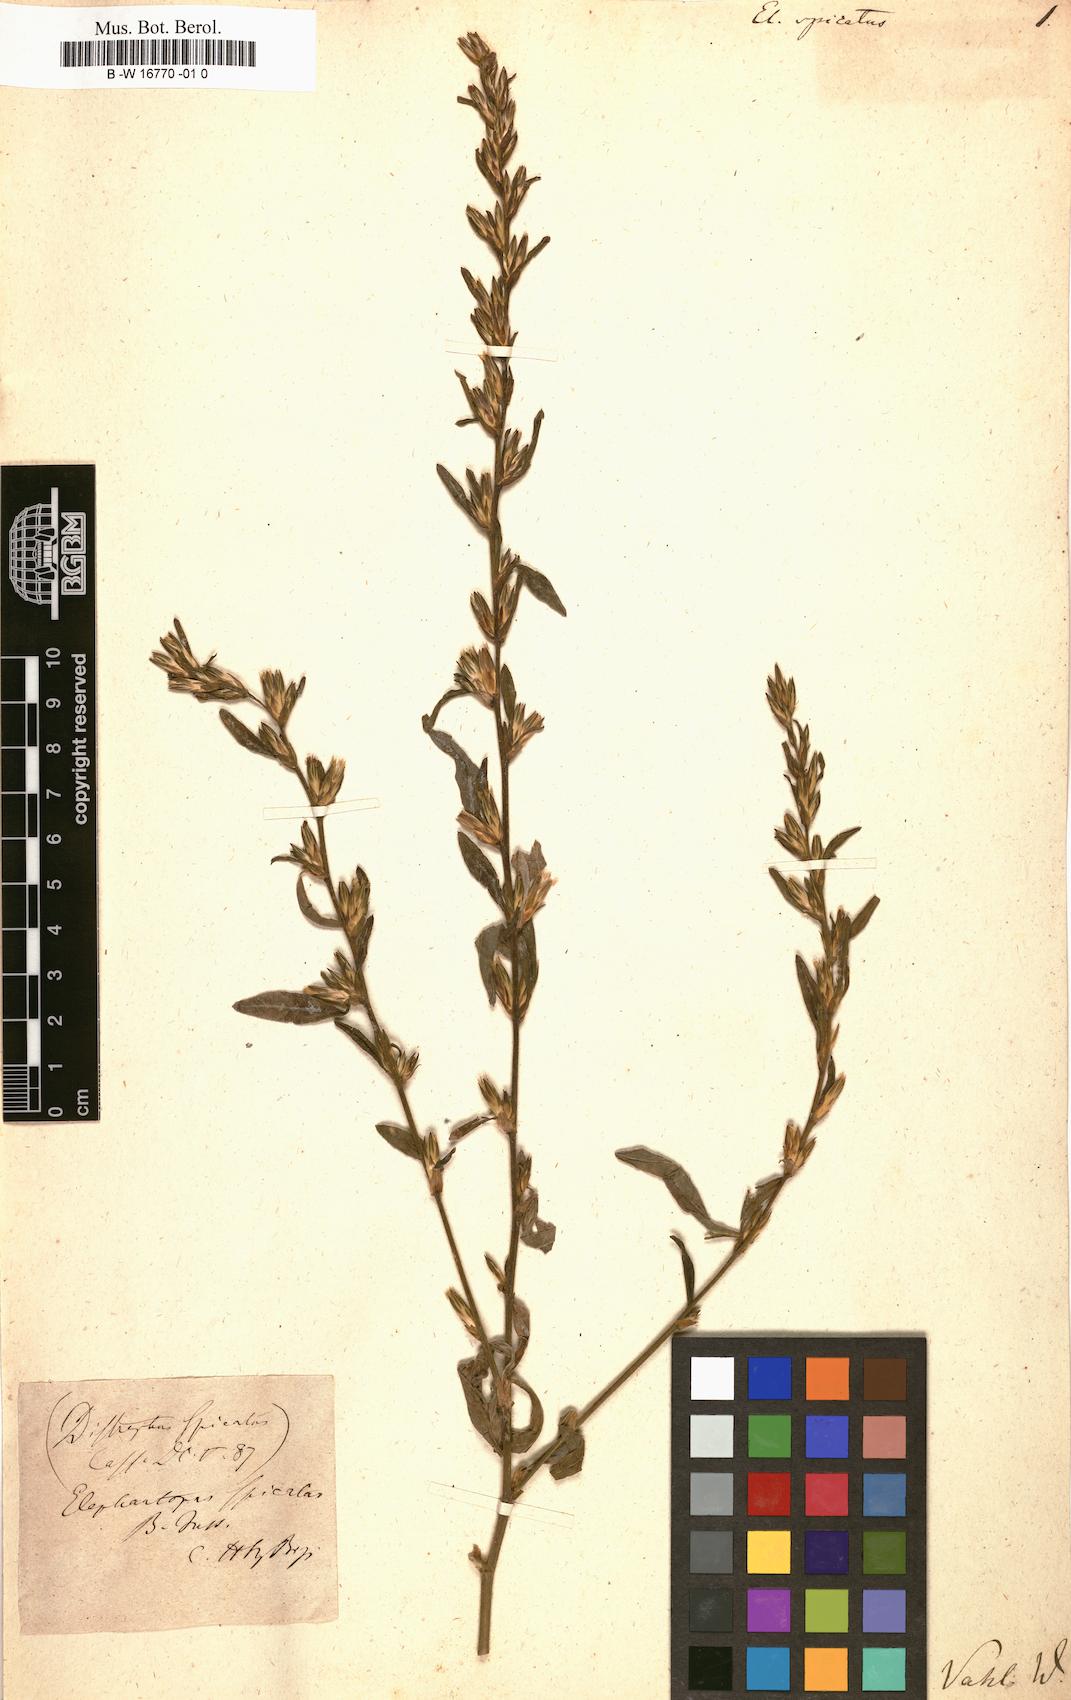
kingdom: Plantae
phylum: Tracheophyta
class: Magnoliopsida
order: Asterales
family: Asteraceae
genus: Pseudelephantopus
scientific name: Pseudelephantopus spicatus
